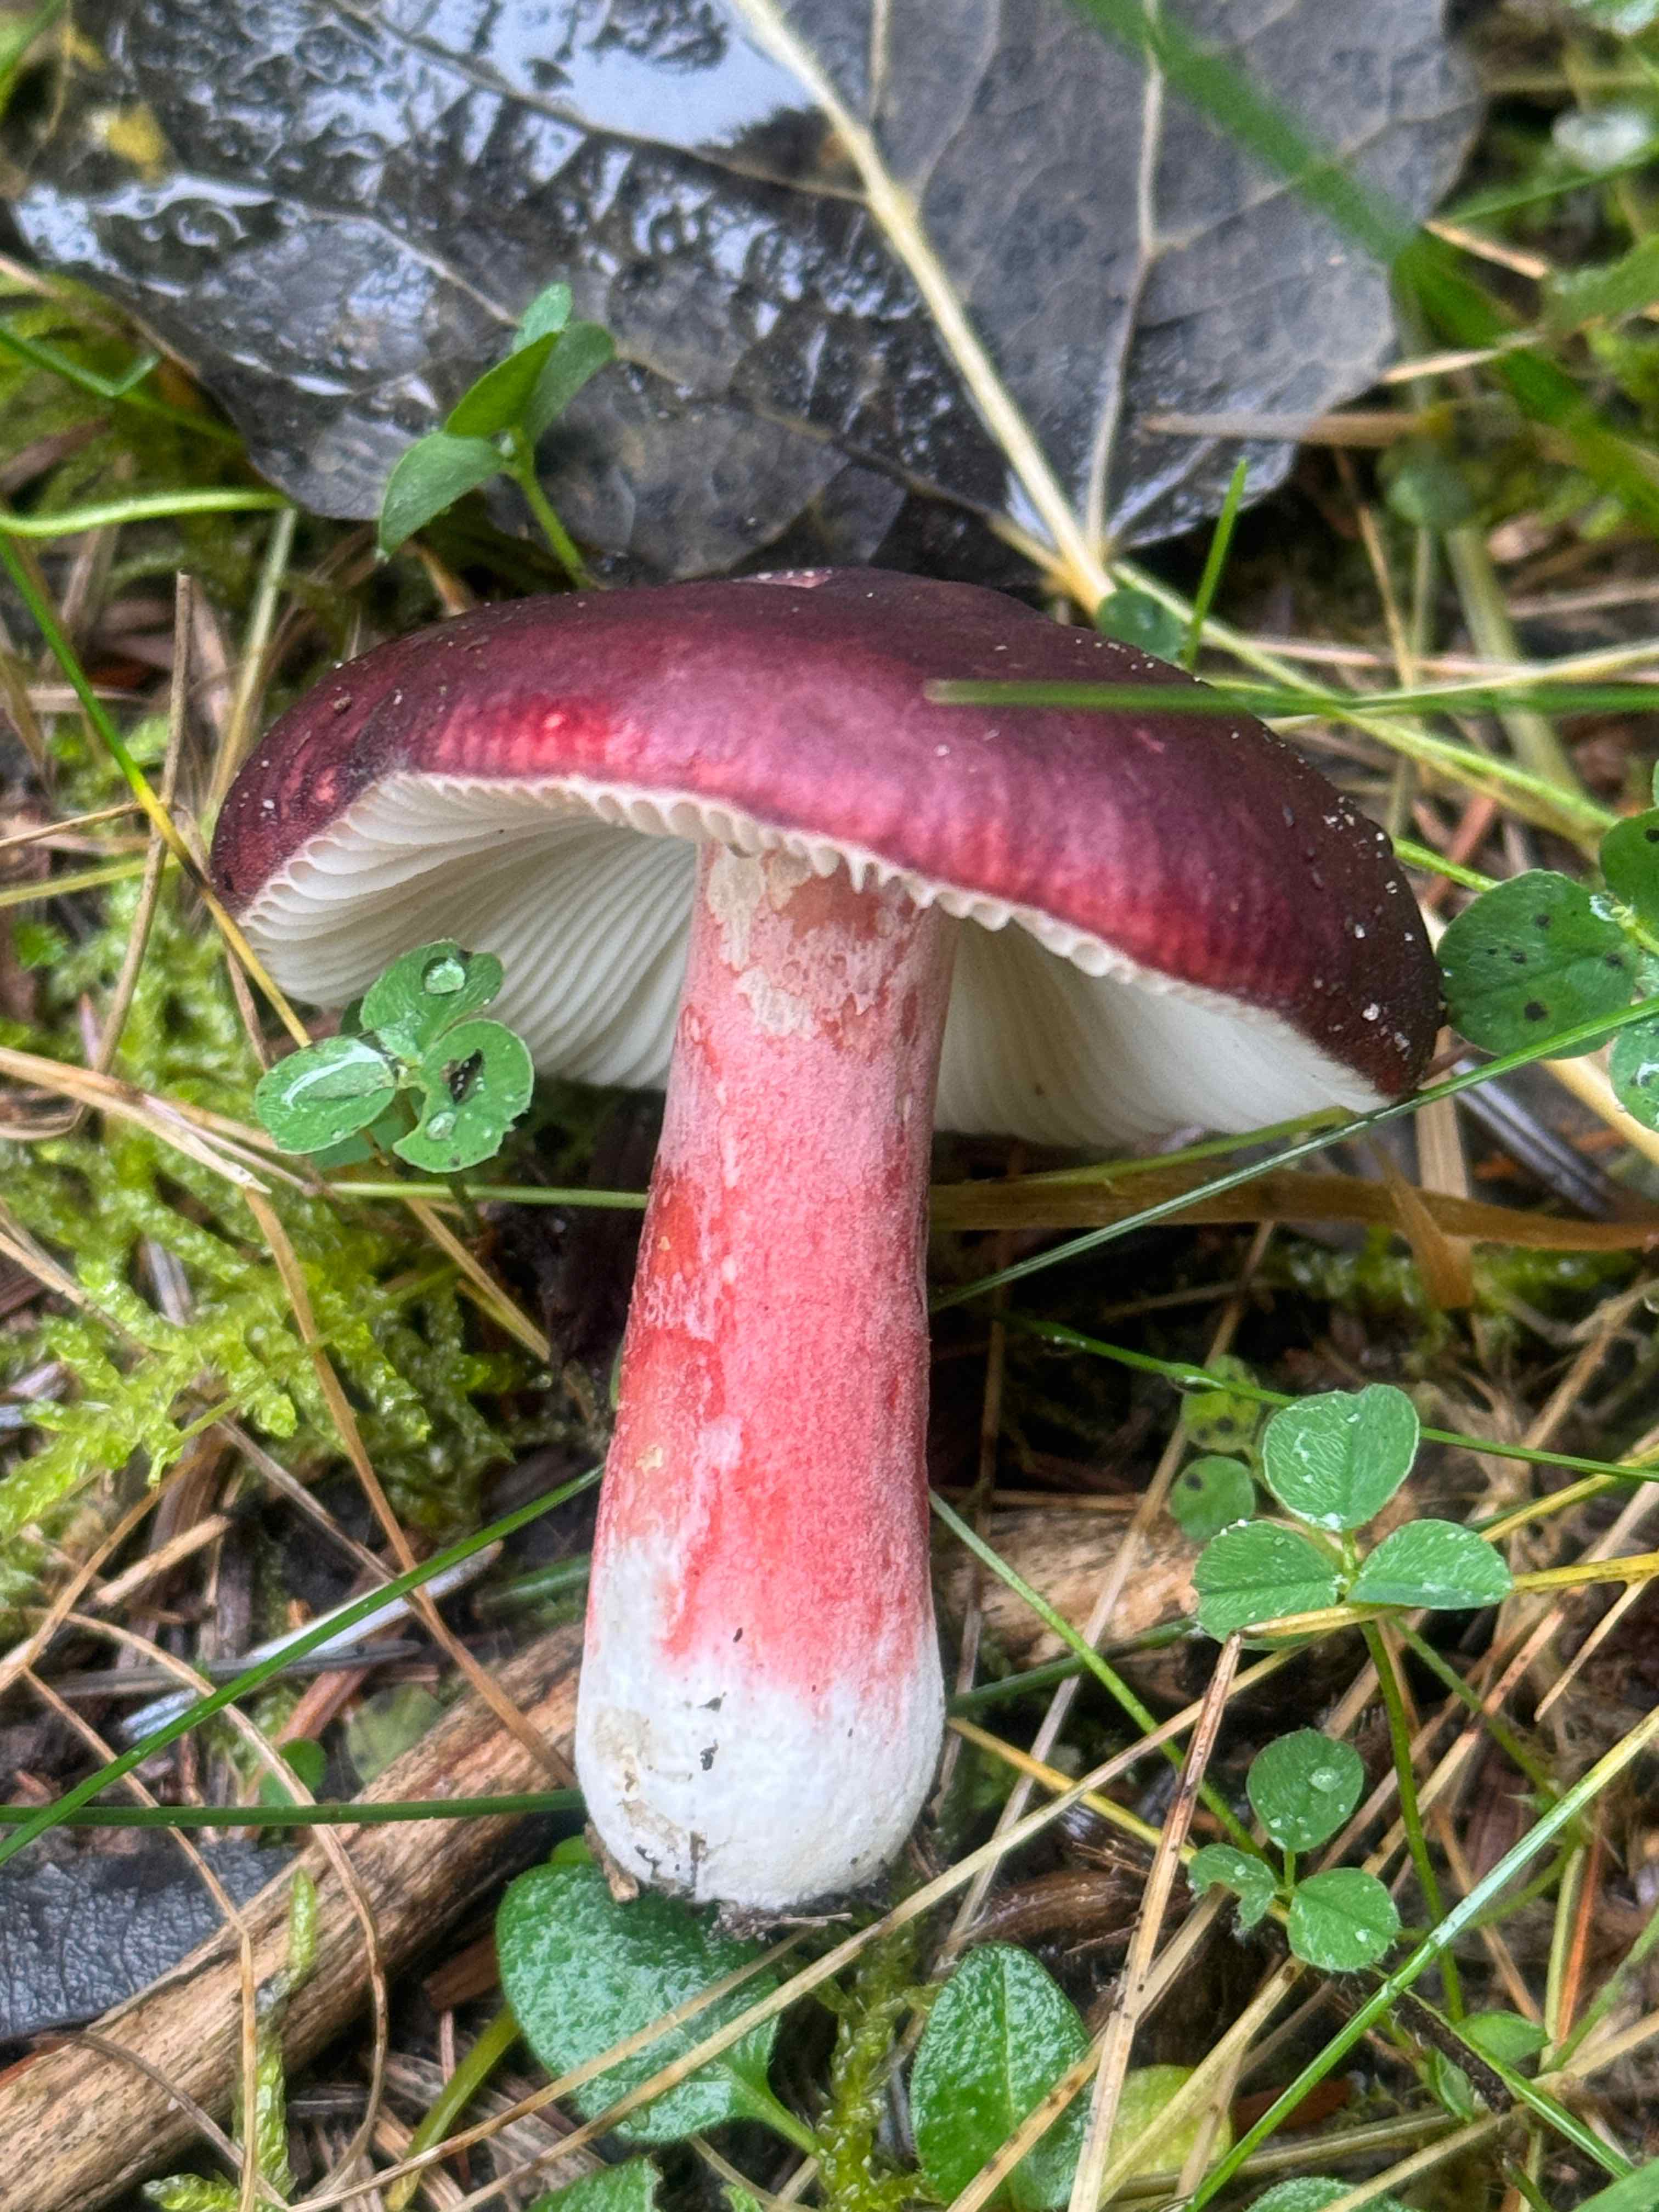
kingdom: Fungi
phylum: Basidiomycota
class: Agaricomycetes
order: Russulales
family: Russulaceae
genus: Russula
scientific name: Russula queletii
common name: Quélets skørhat
